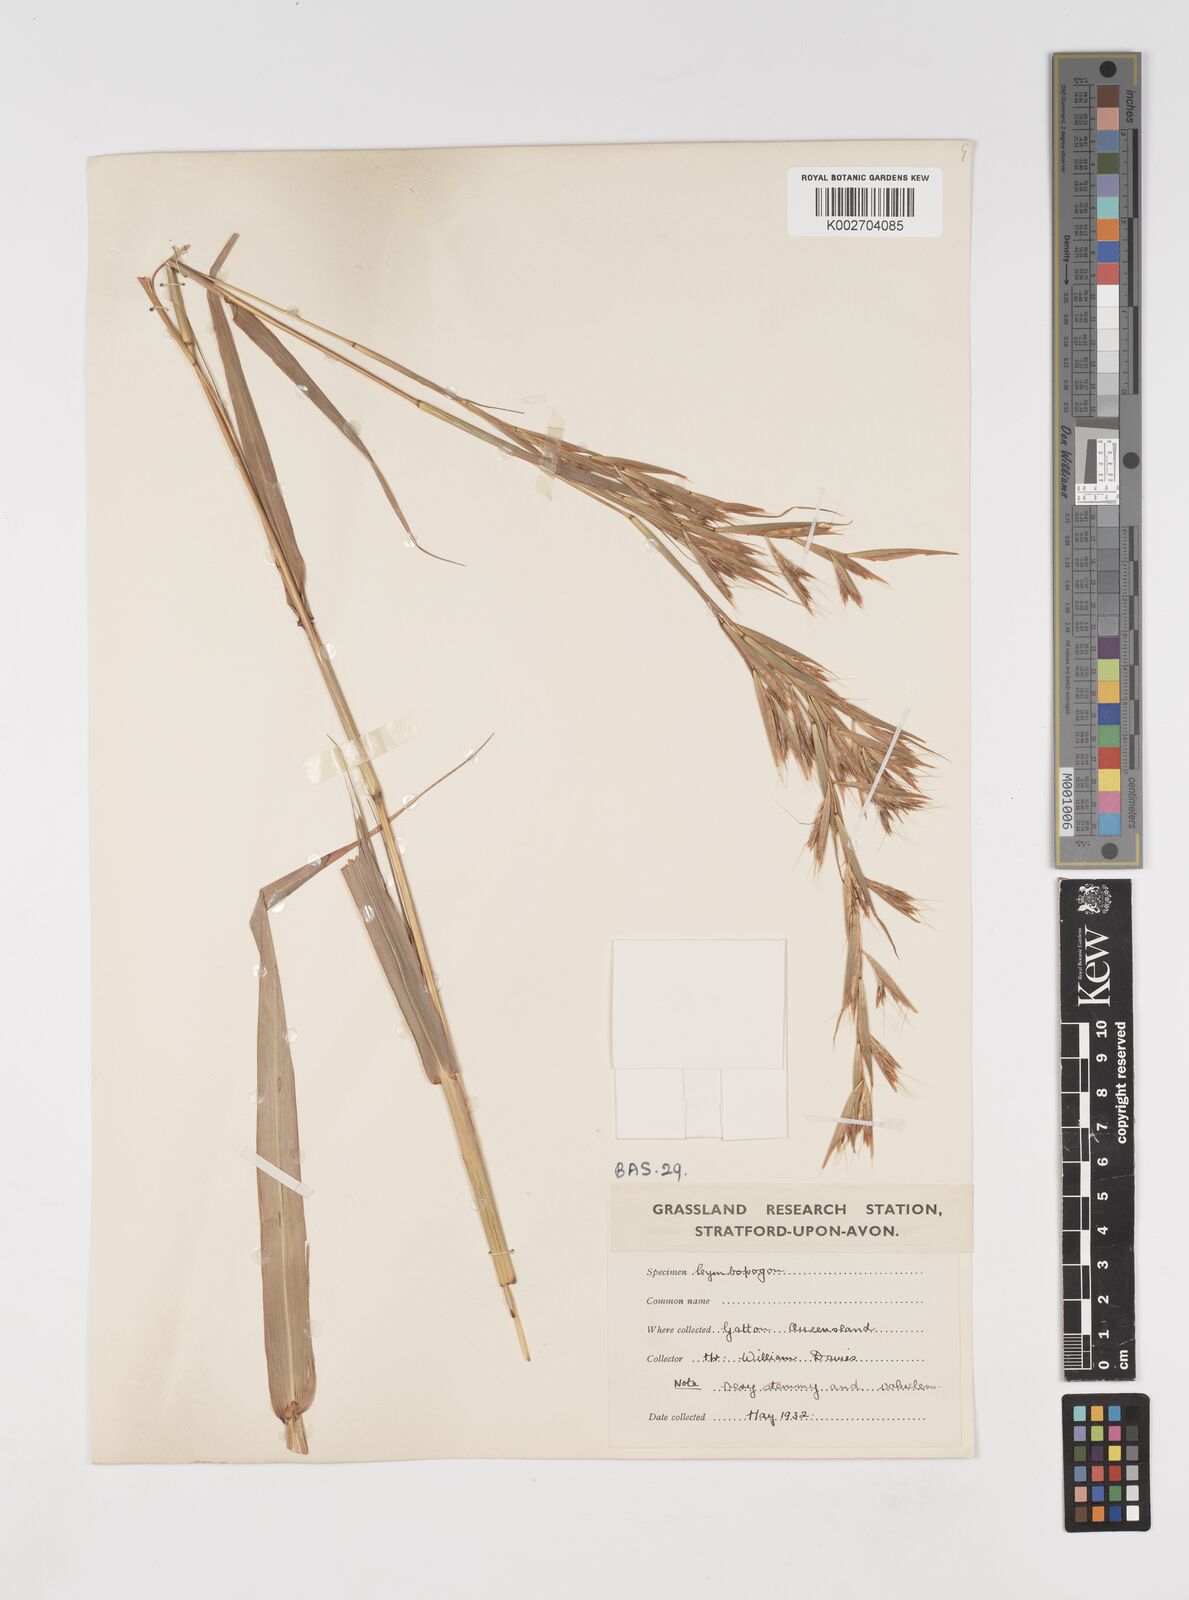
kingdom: Plantae
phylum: Tracheophyta
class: Liliopsida
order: Poales
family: Poaceae
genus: Cymbopogon
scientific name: Cymbopogon martini
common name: Ginger grass
